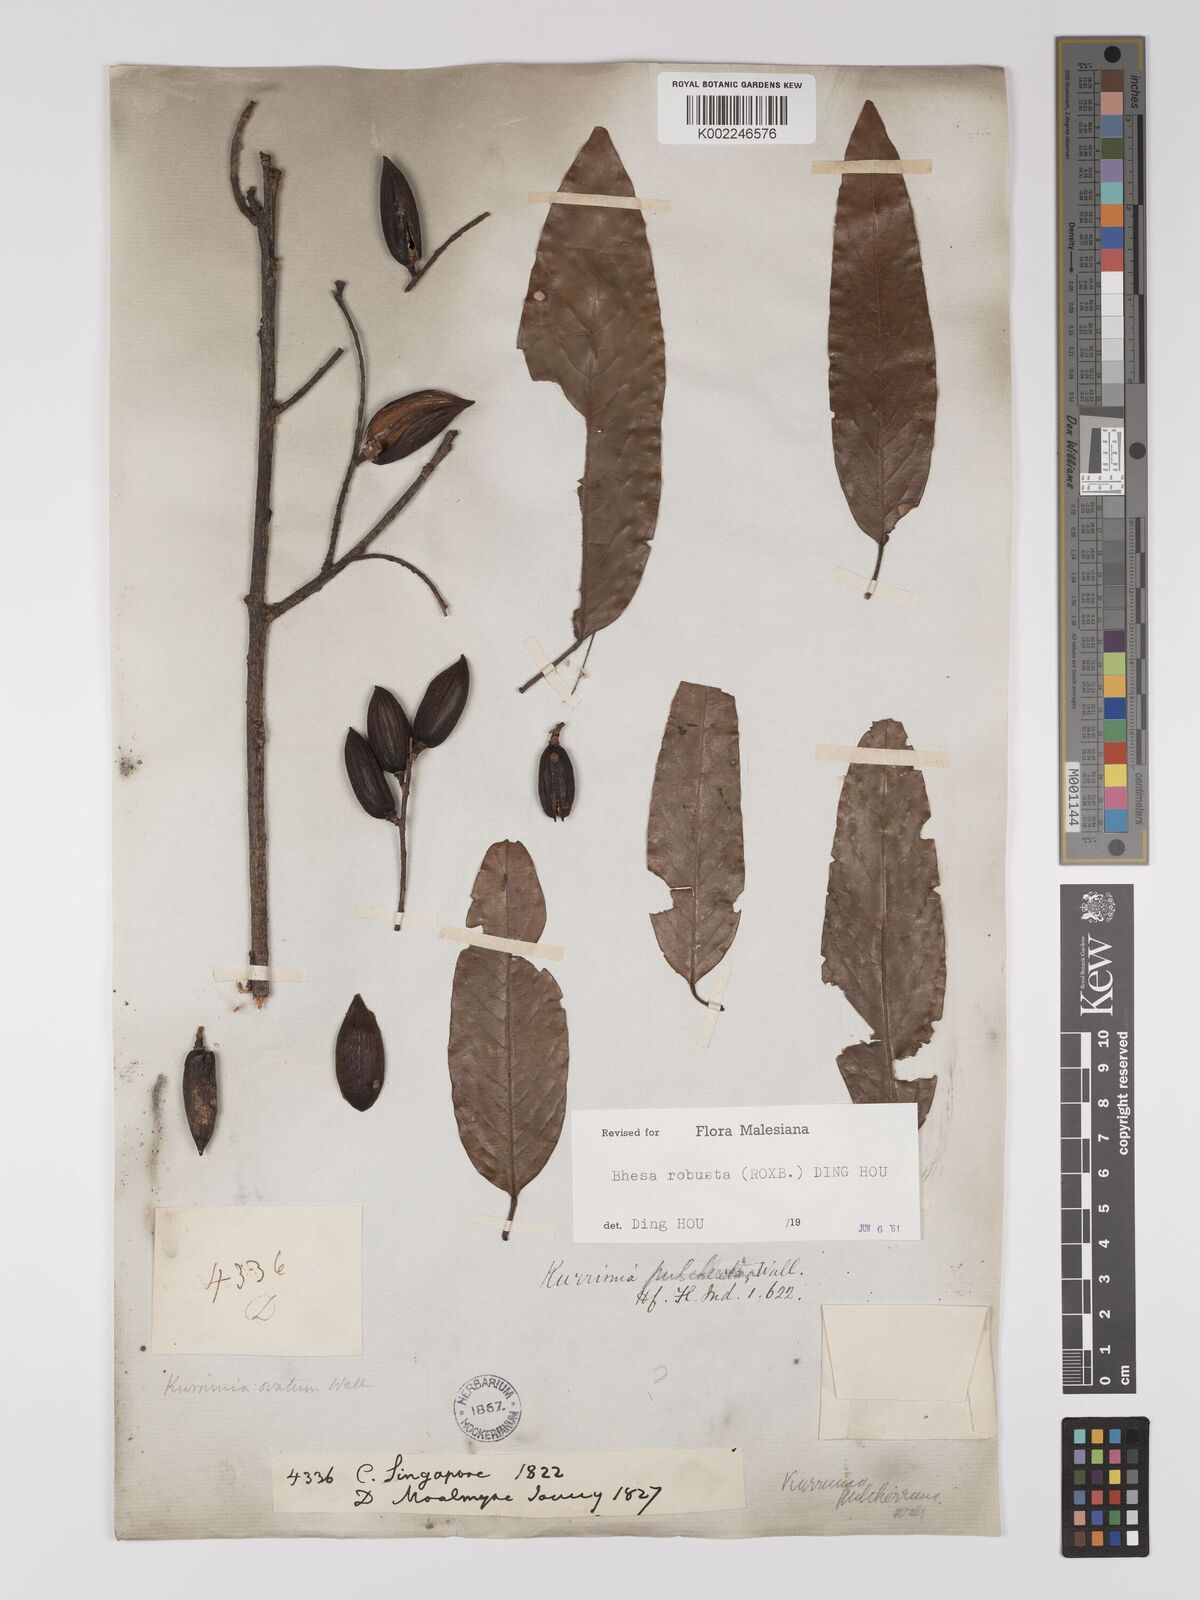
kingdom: Plantae
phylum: Tracheophyta
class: Magnoliopsida
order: Malpighiales
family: Centroplacaceae
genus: Bhesa
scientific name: Bhesa robusta
